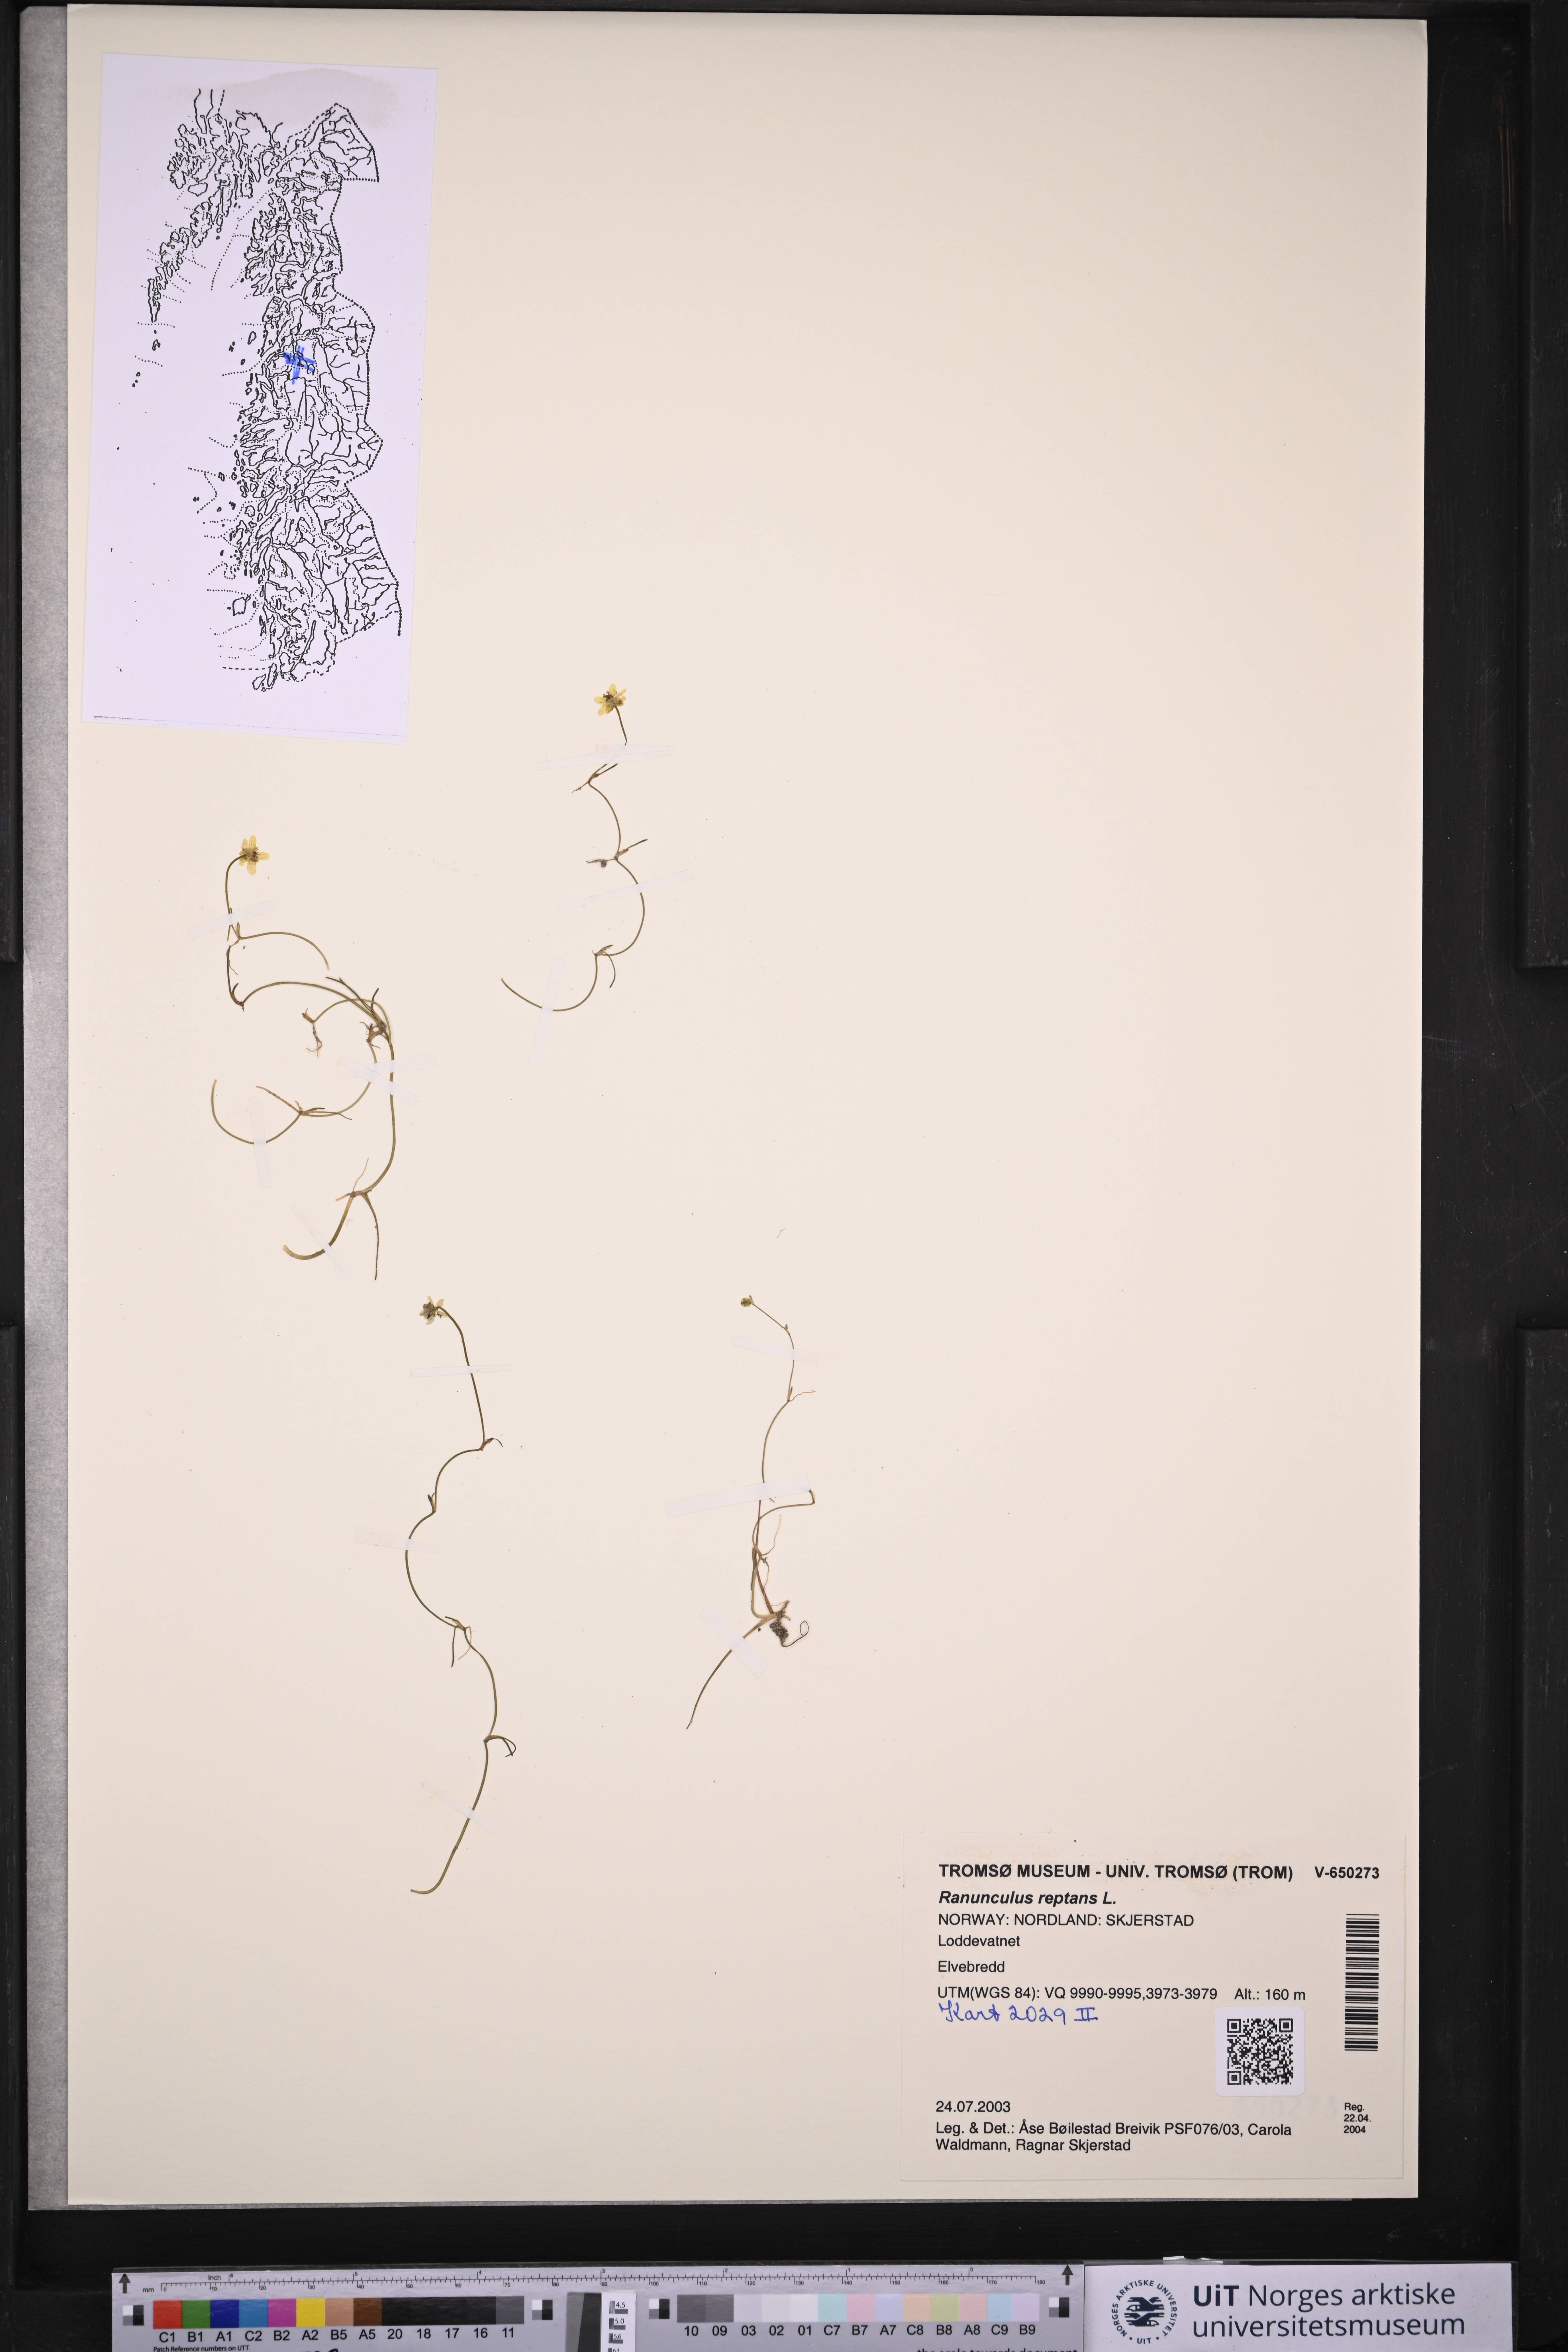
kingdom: Plantae
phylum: Tracheophyta
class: Magnoliopsida
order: Ranunculales
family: Ranunculaceae
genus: Ranunculus
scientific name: Ranunculus reptans
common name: Creeping spearwort
